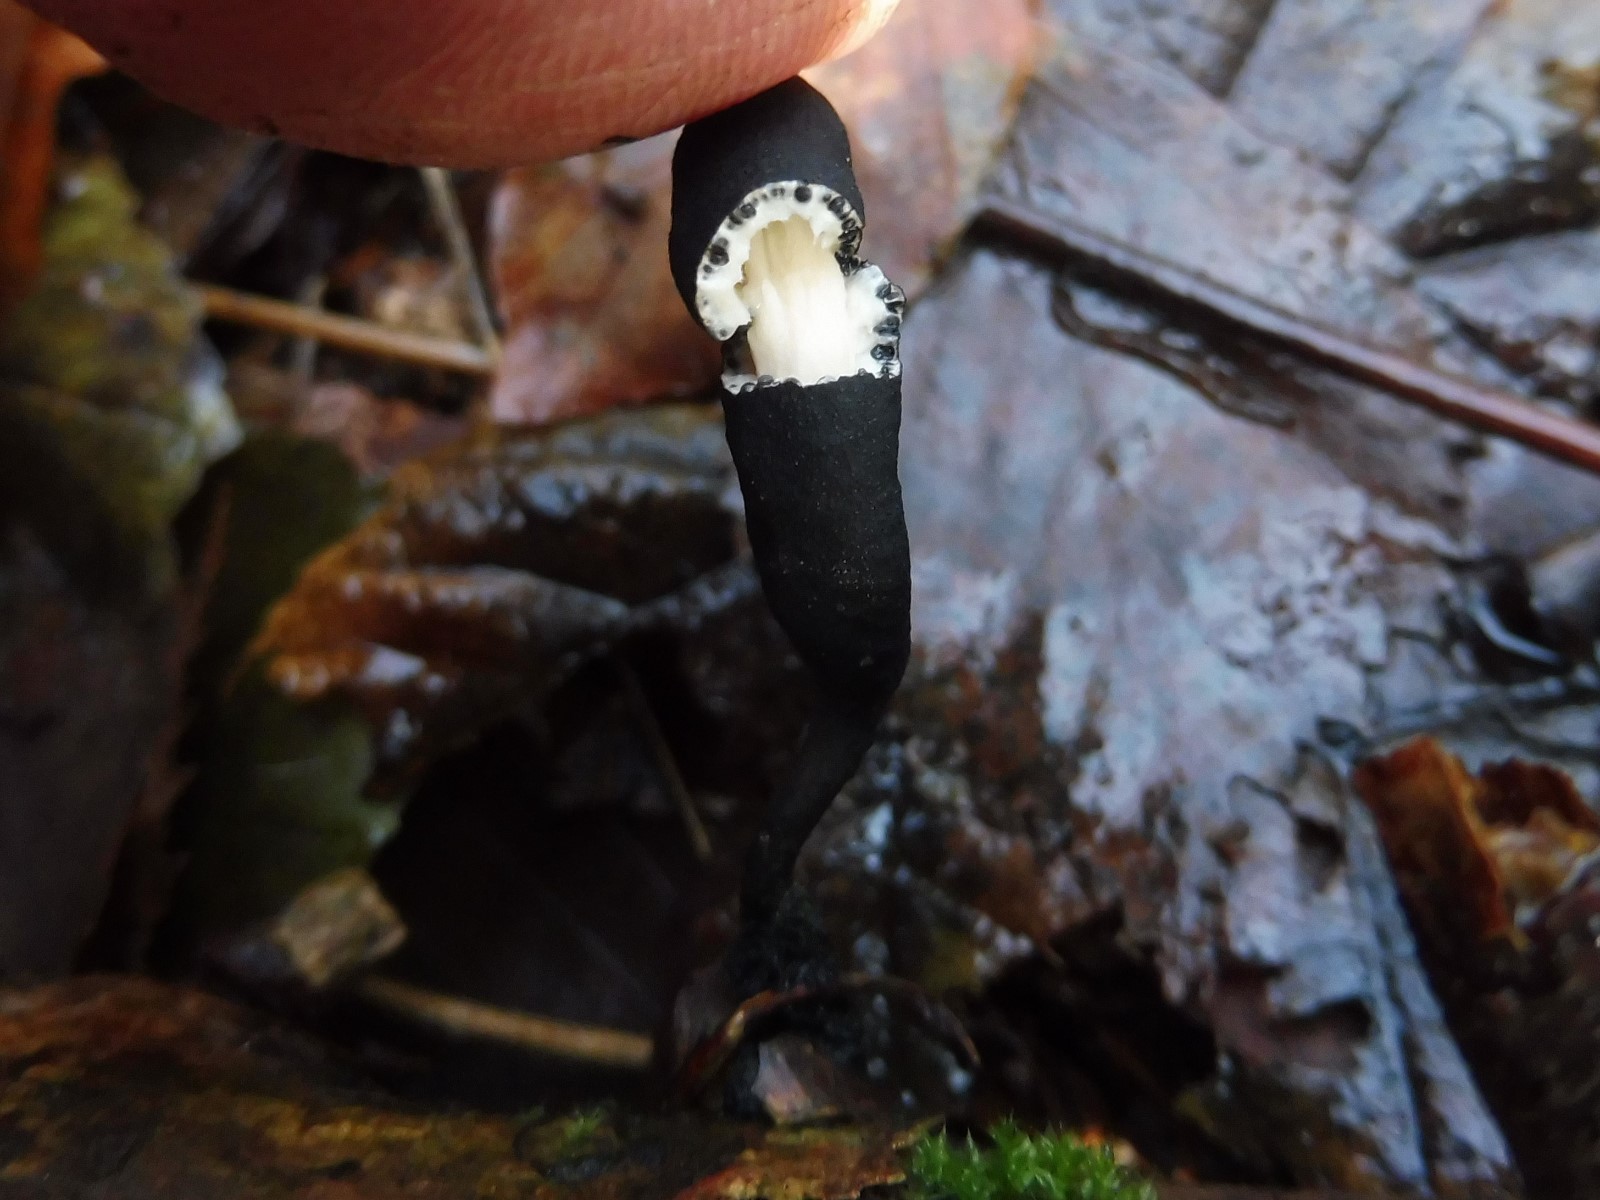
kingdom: Fungi
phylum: Ascomycota
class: Sordariomycetes
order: Xylariales
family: Xylariaceae
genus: Xylaria
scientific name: Xylaria longipes
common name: slank stødsvamp
